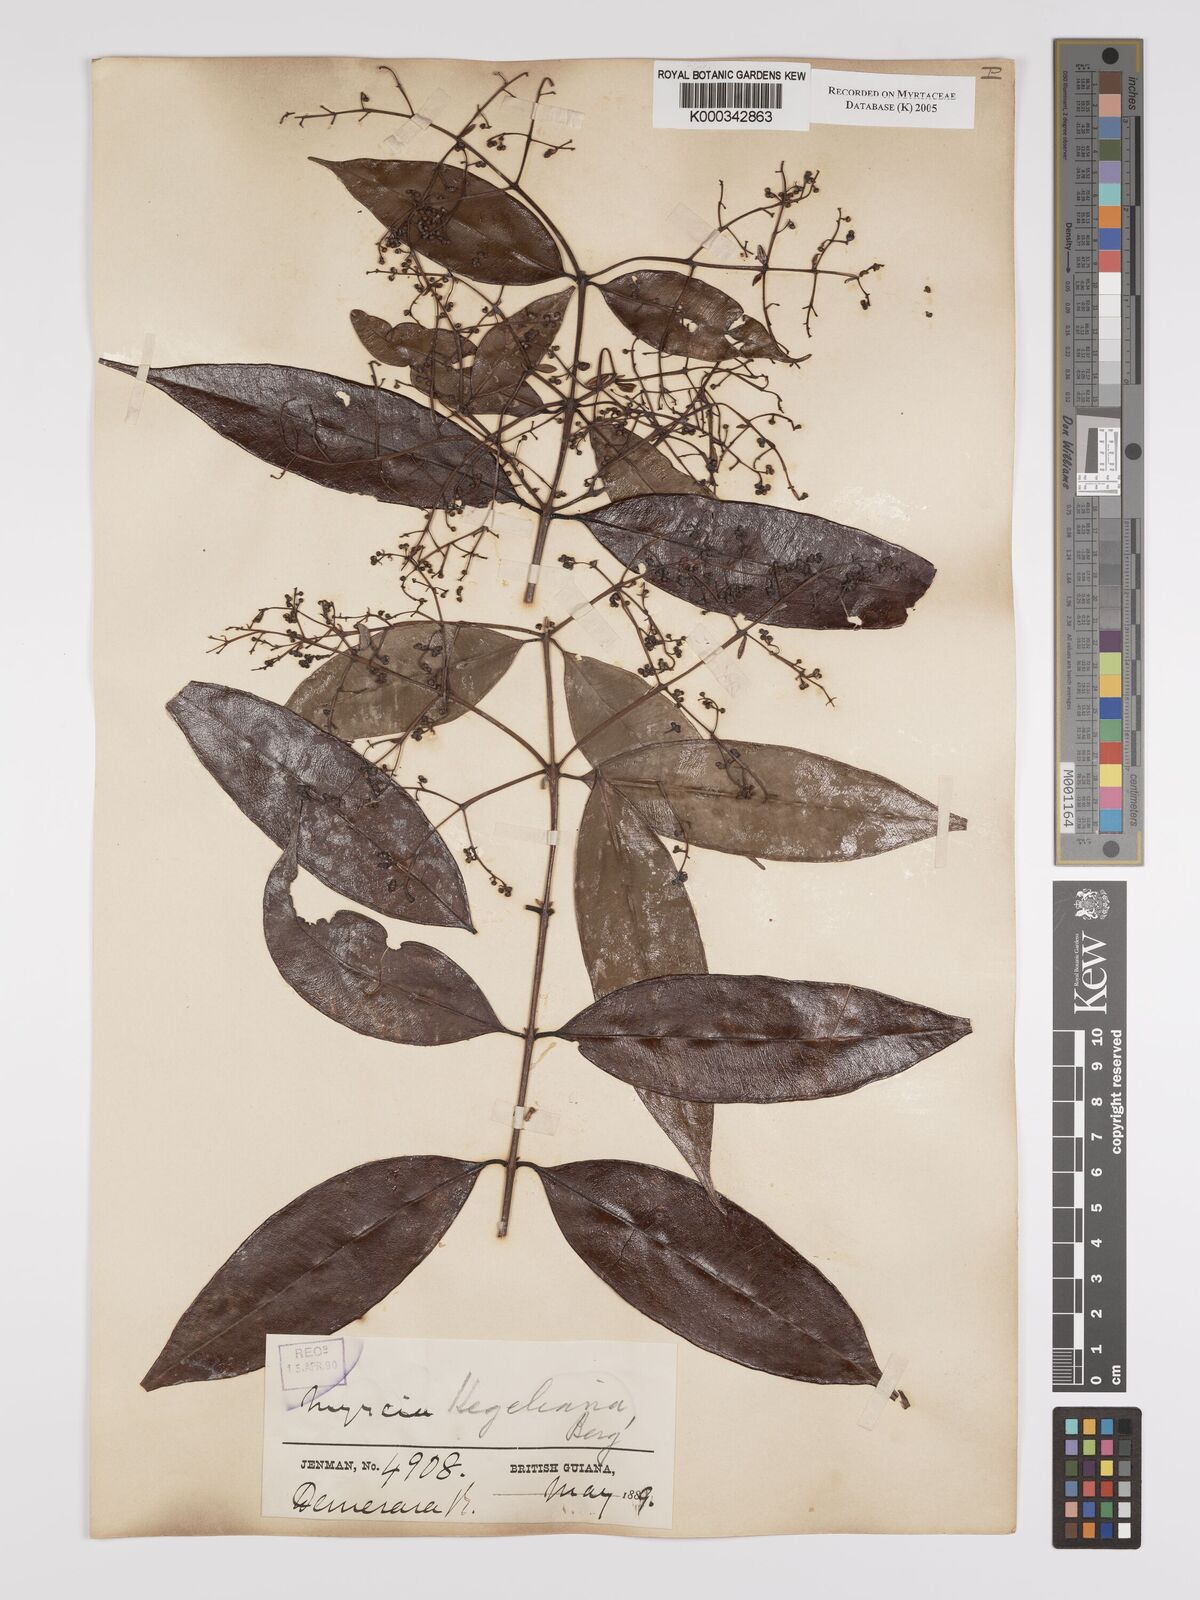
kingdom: Plantae
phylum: Tracheophyta
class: Magnoliopsida
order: Myrtales
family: Myrtaceae
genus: Myrcia
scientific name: Myrcia splendens
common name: Surinam cherry
